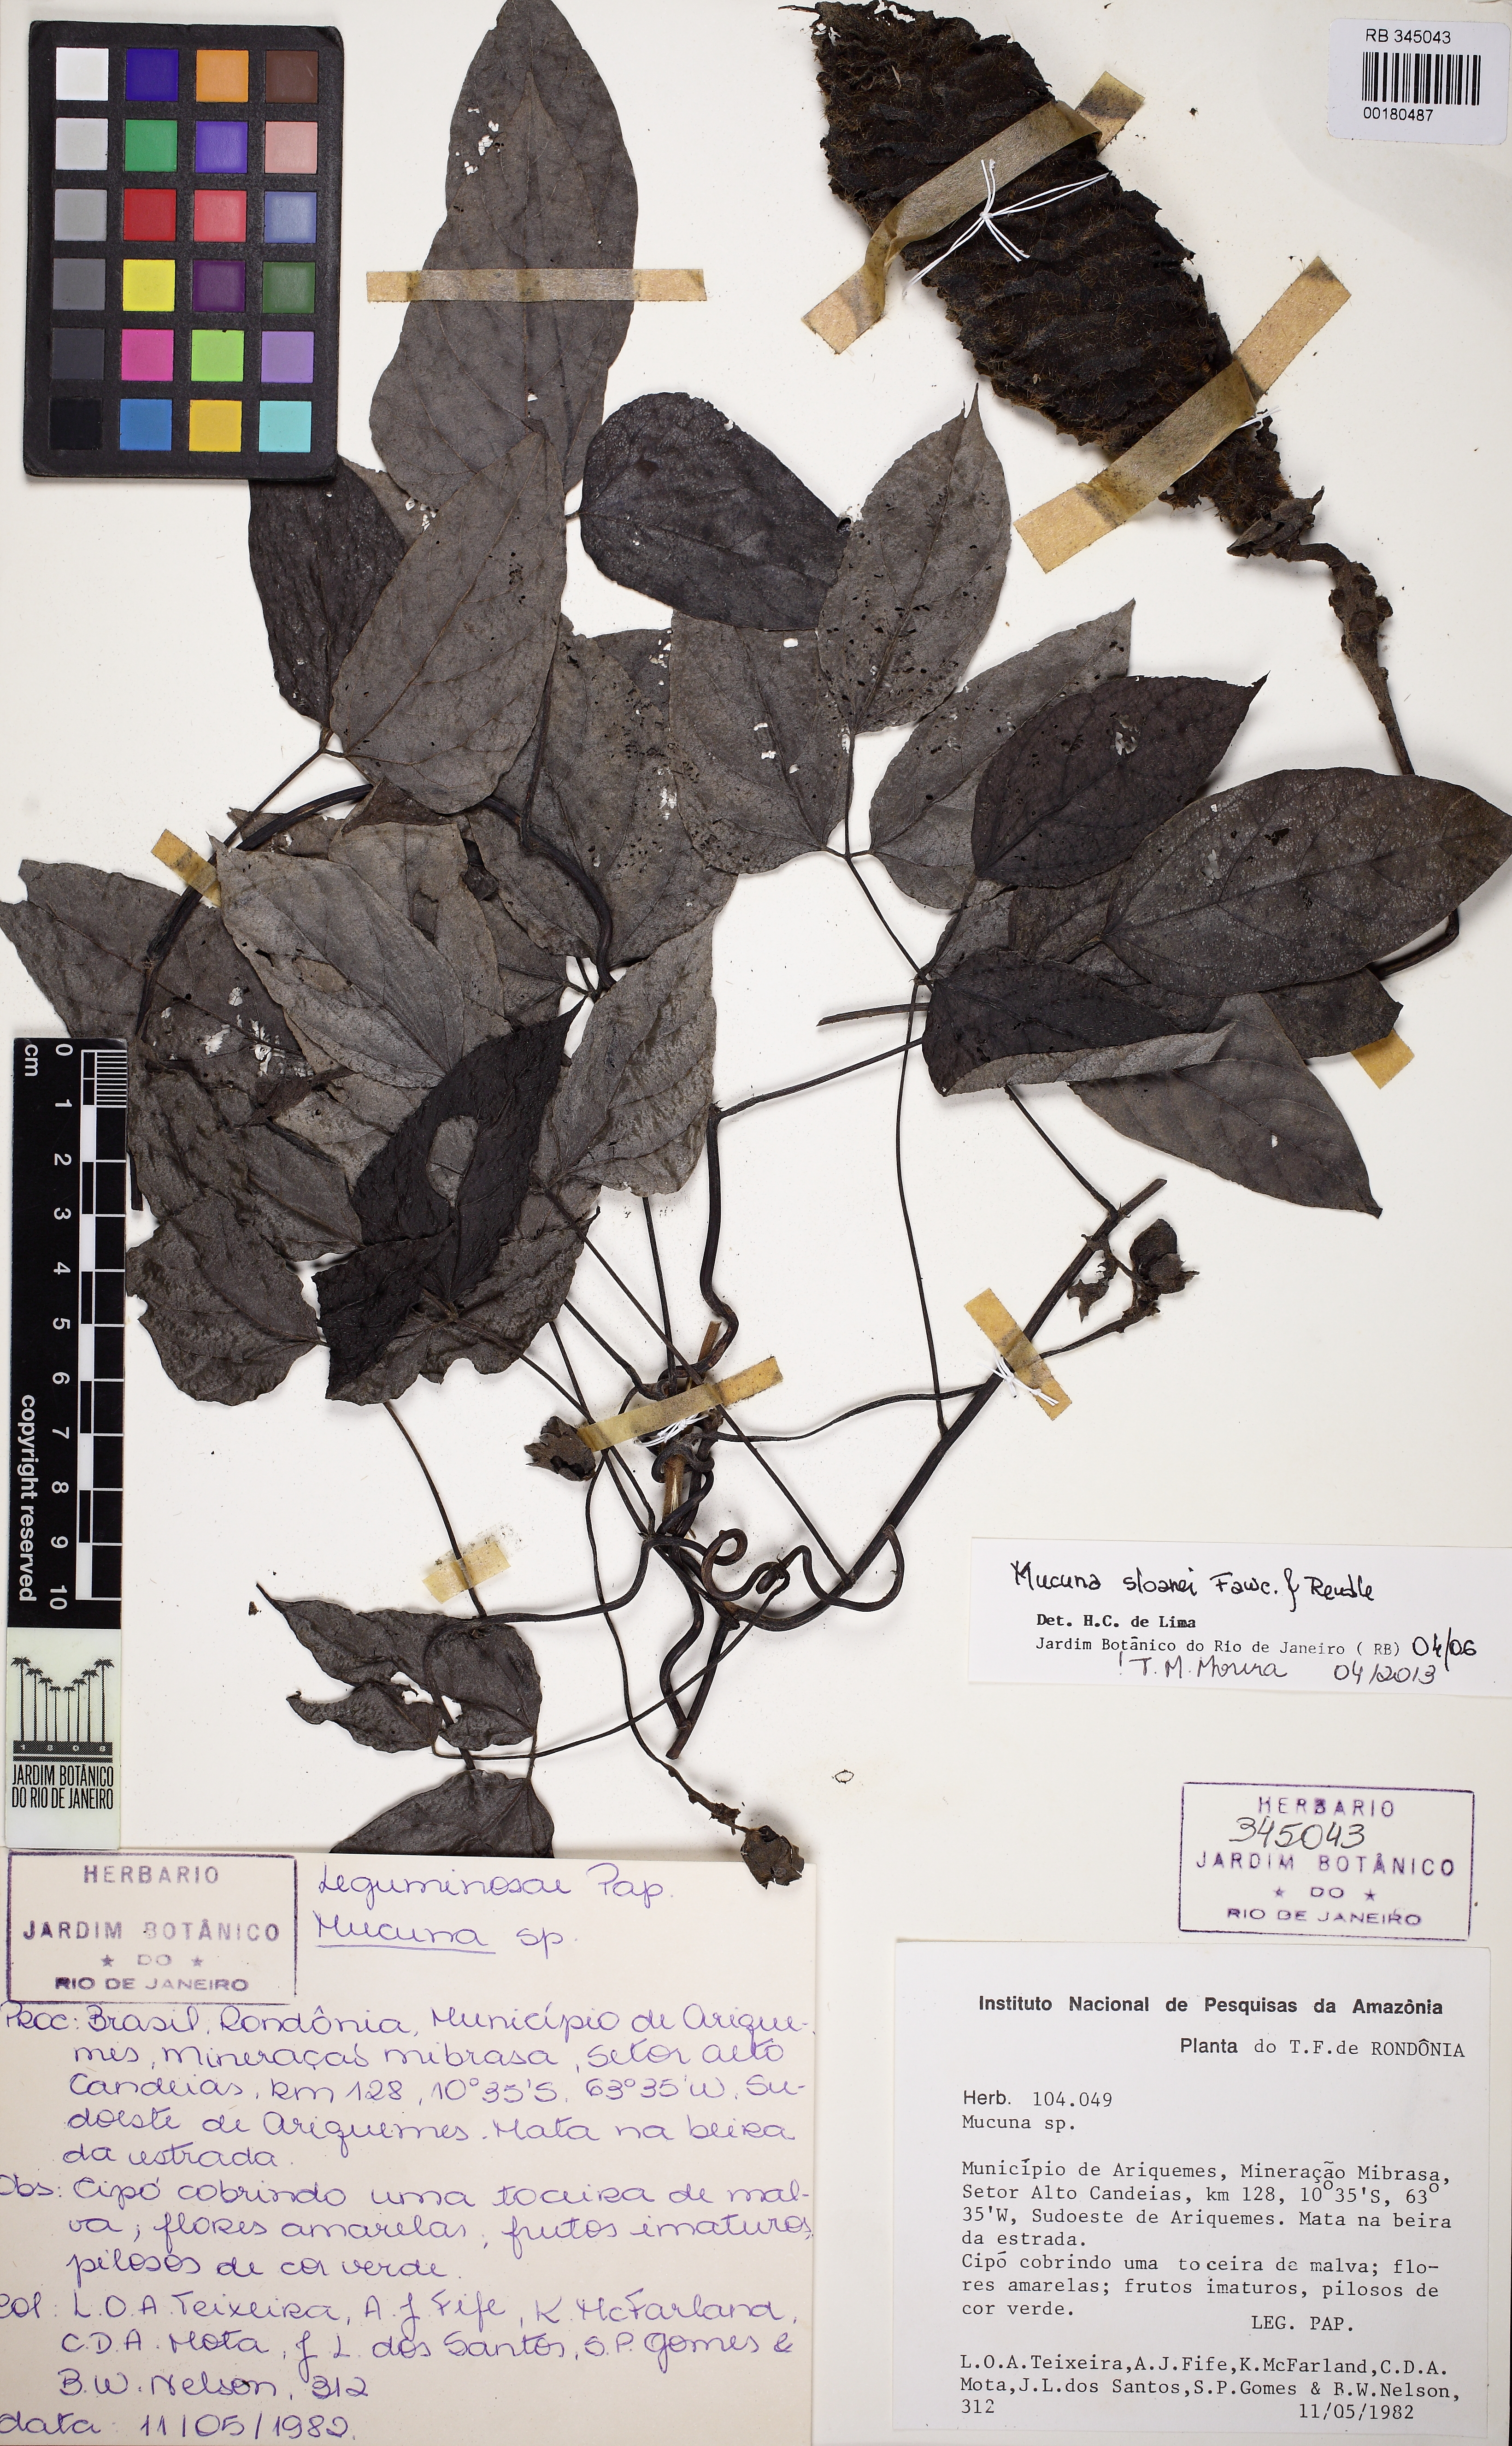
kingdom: Plantae
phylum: Tracheophyta
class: Magnoliopsida
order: Fabales
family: Fabaceae
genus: Mucuna
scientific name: Mucuna sloanei
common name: Horse-eye bean
